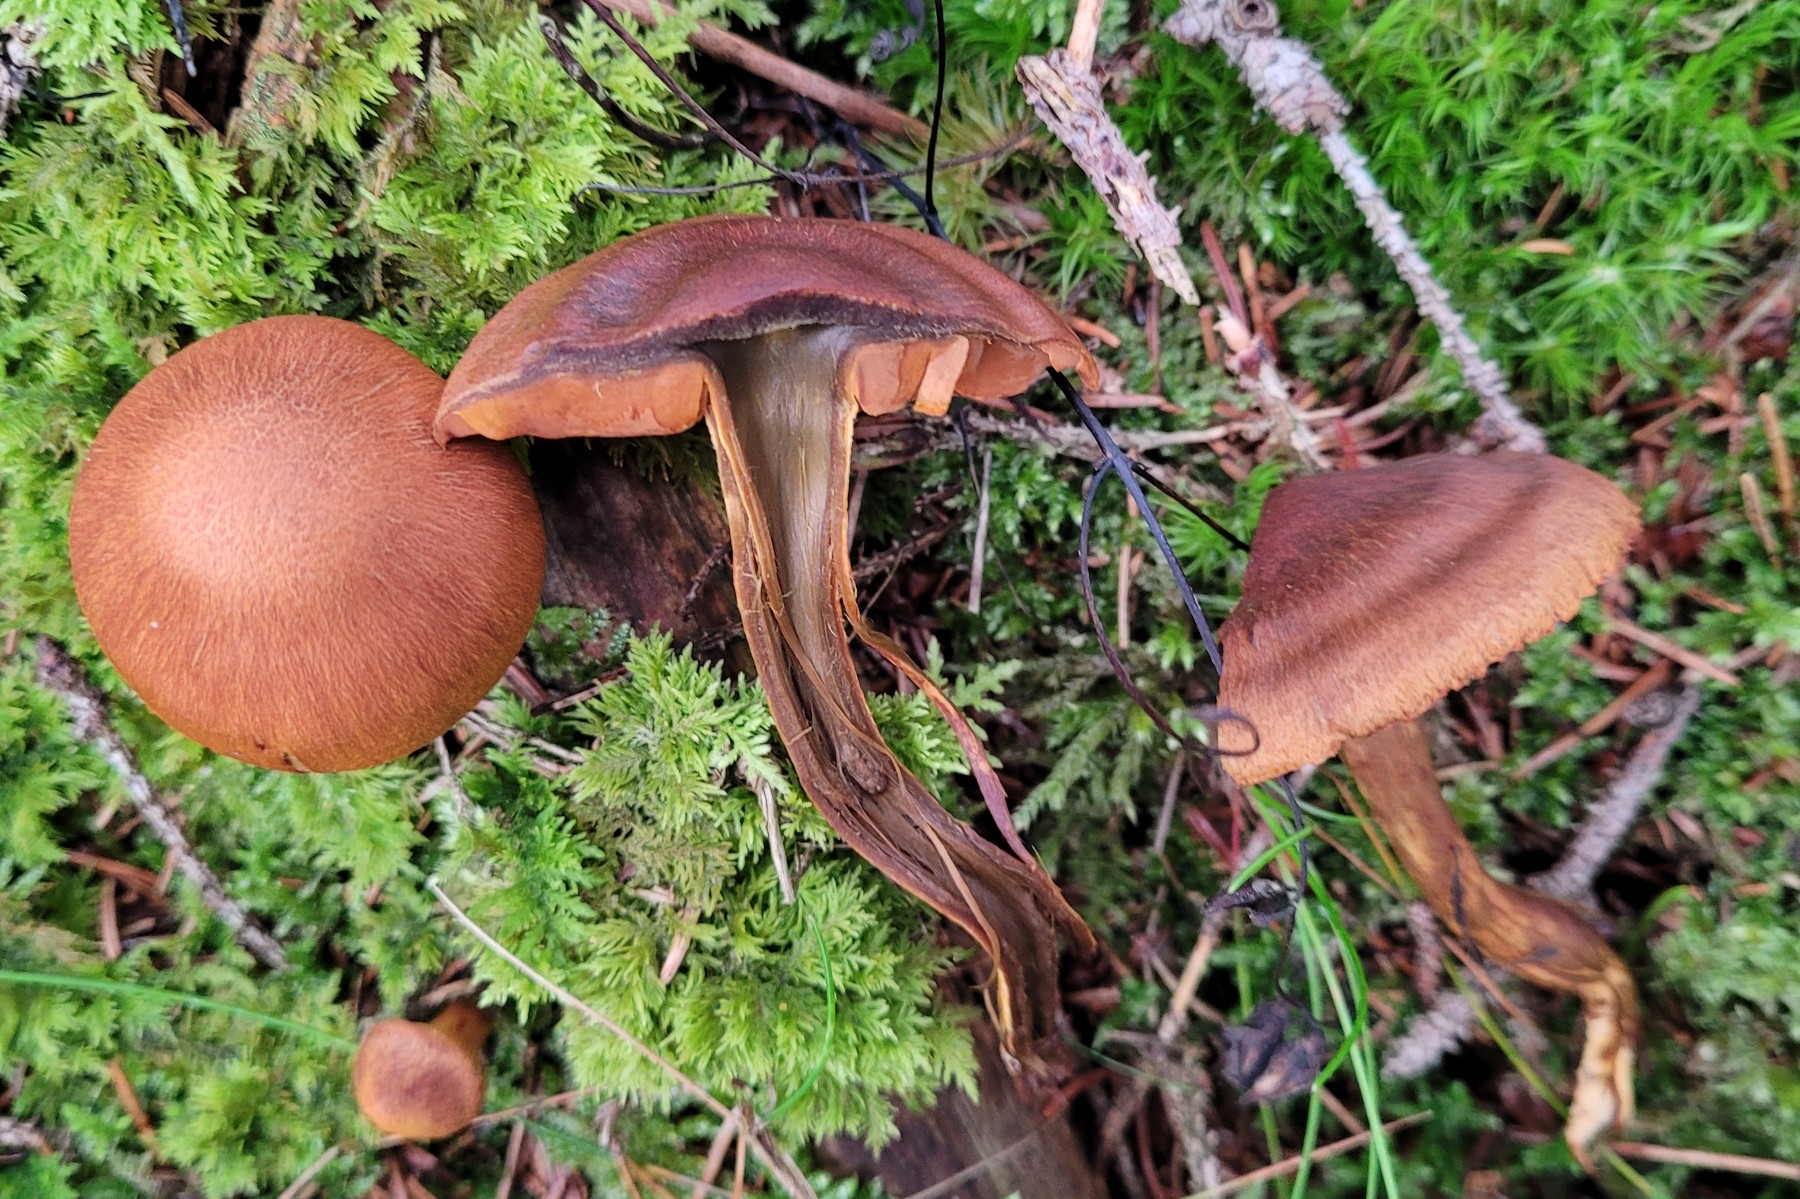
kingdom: Fungi
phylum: Basidiomycota
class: Agaricomycetes
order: Agaricales
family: Cortinariaceae
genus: Cortinarius
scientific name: Cortinarius malicorius
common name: grønkødet slørhat
